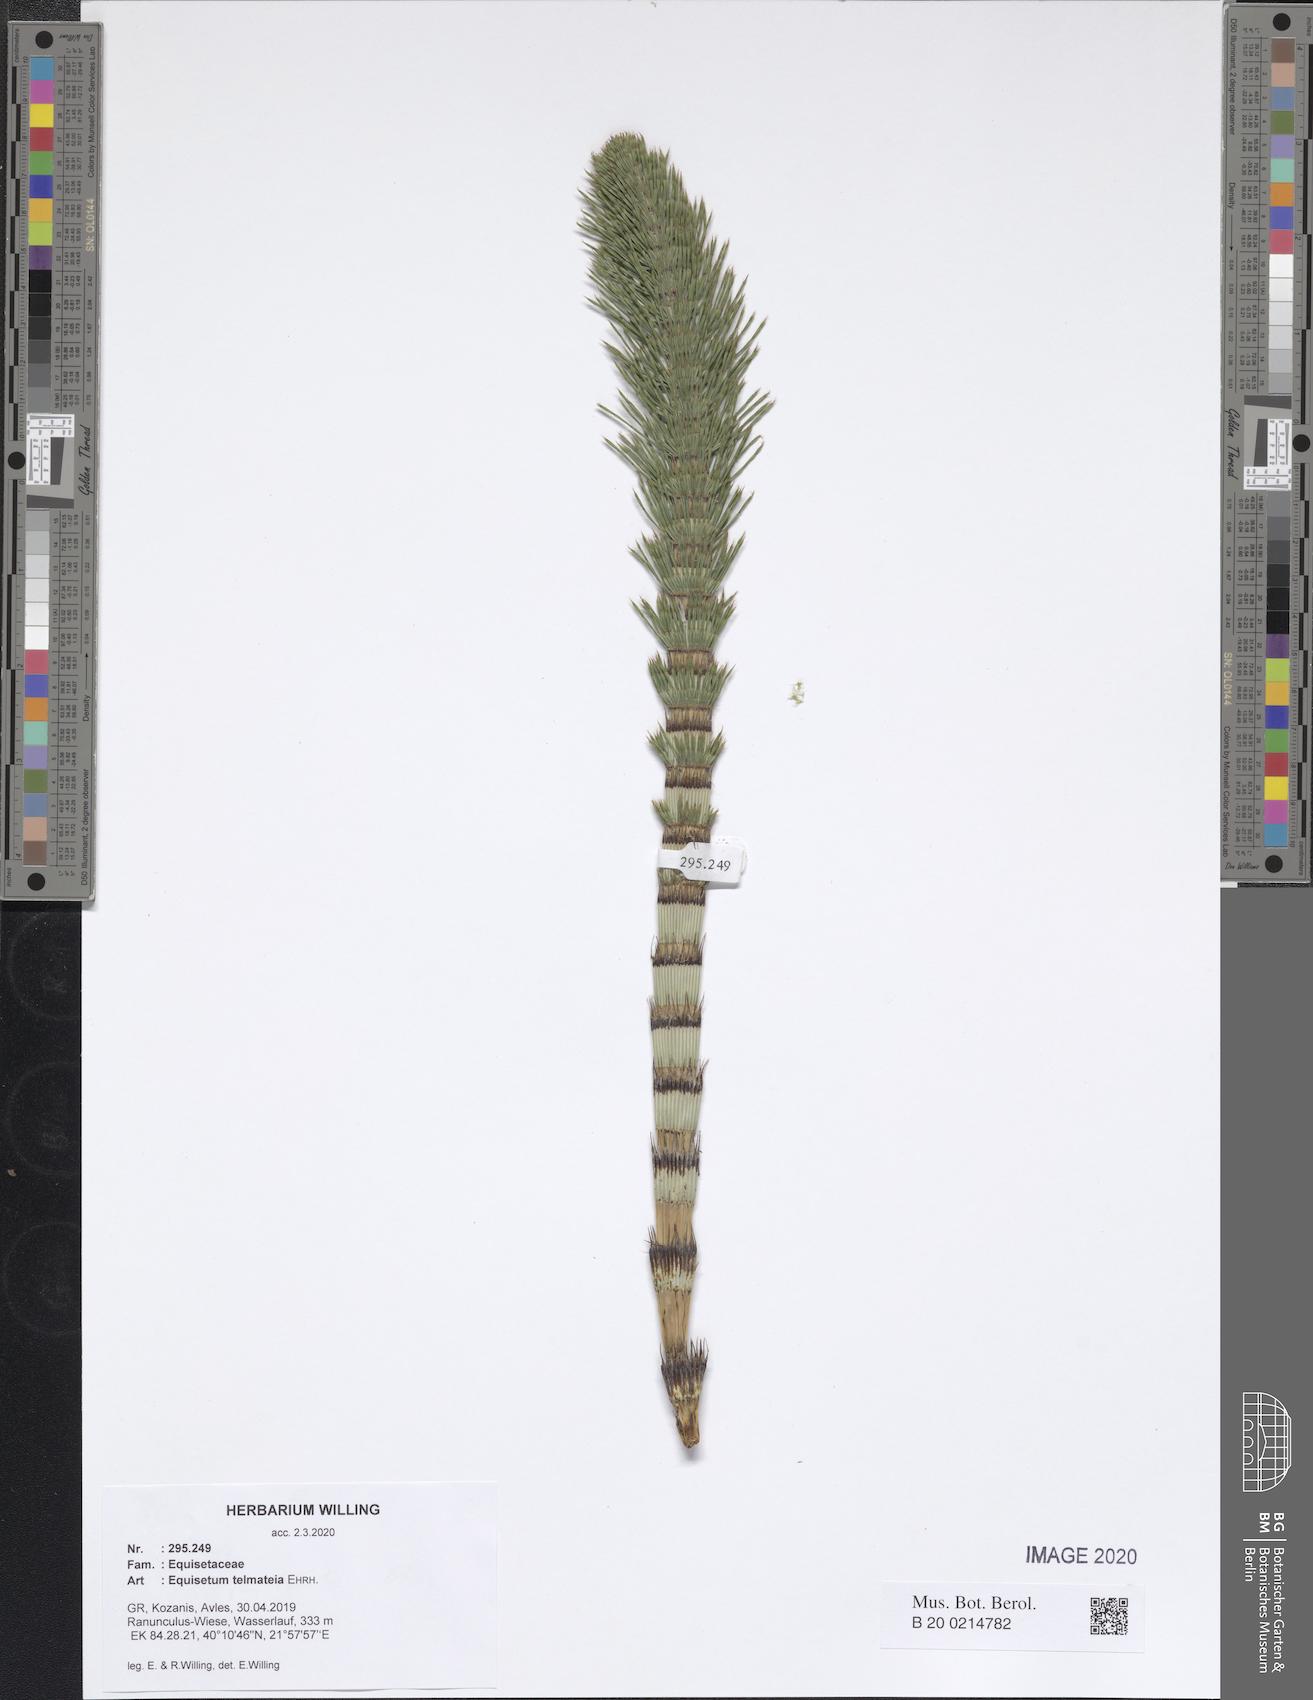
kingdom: Plantae
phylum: Tracheophyta
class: Polypodiopsida
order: Equisetales
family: Equisetaceae
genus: Equisetum
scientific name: Equisetum telmateia
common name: Great horsetail
